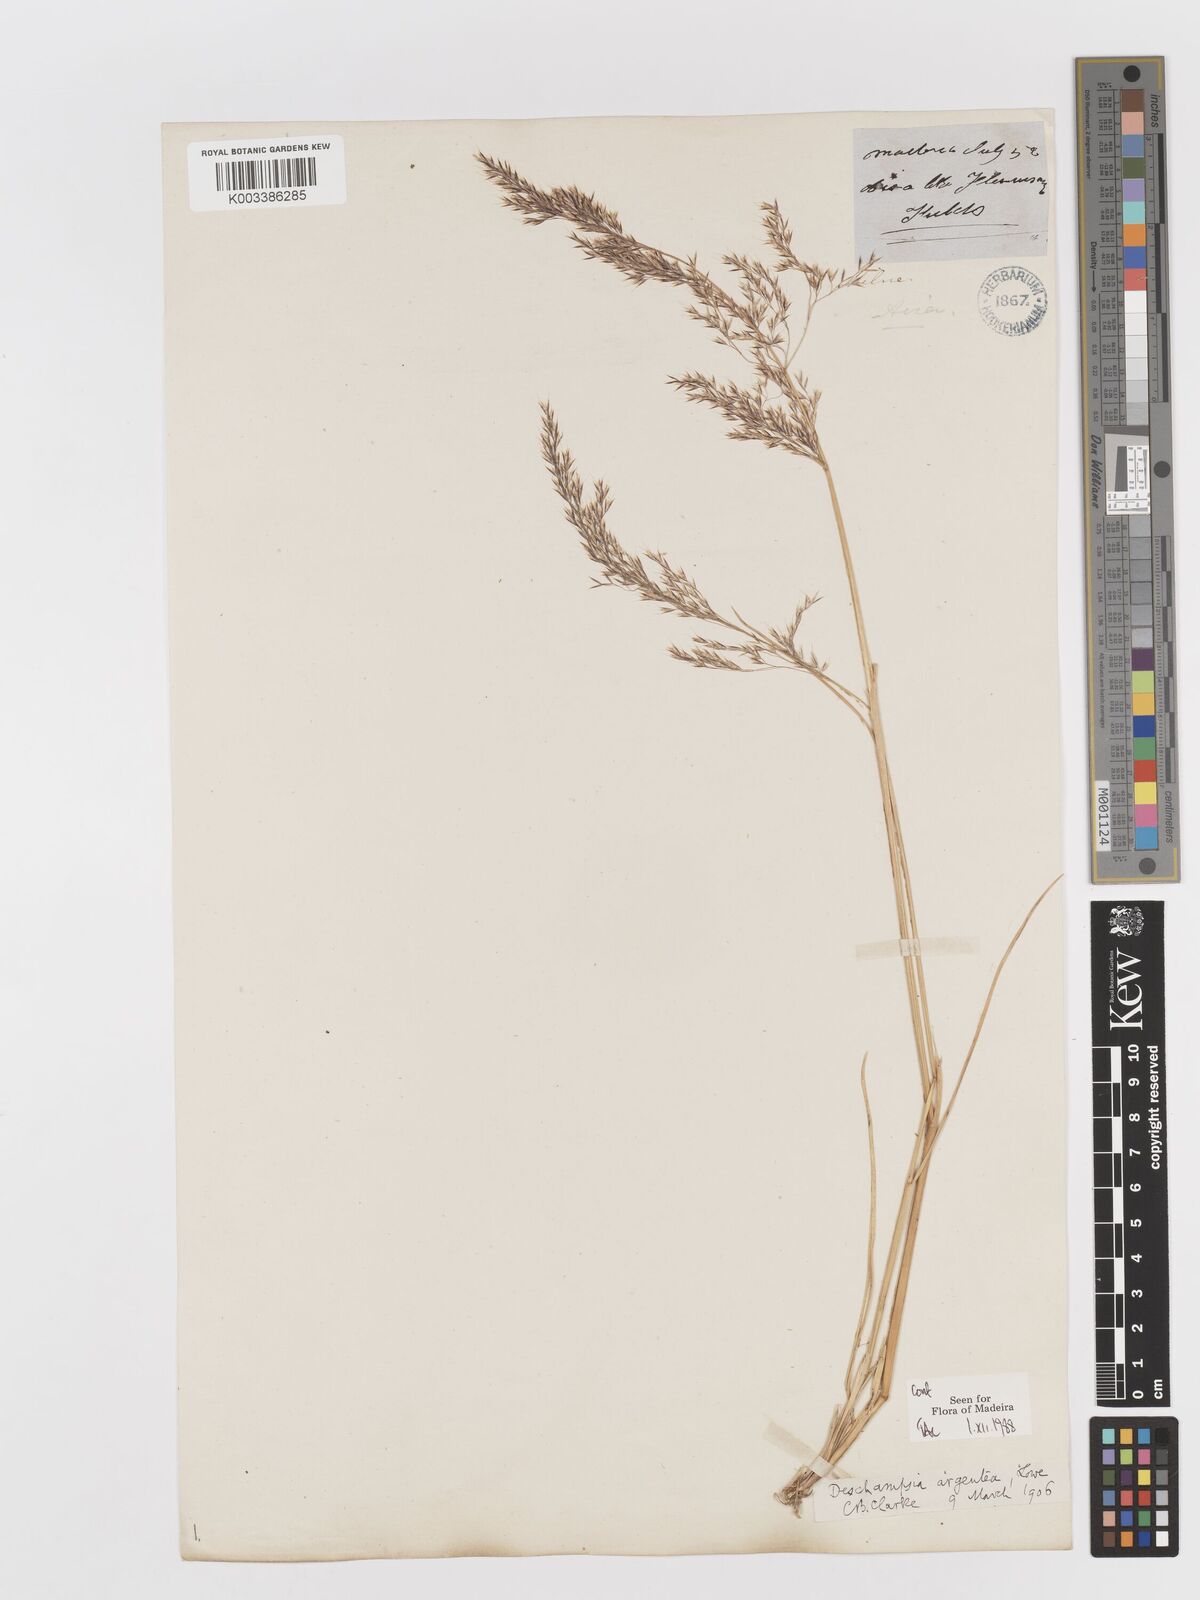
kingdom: Plantae
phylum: Tracheophyta
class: Liliopsida
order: Poales
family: Poaceae
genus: Deschampsia
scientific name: Deschampsia argentea
